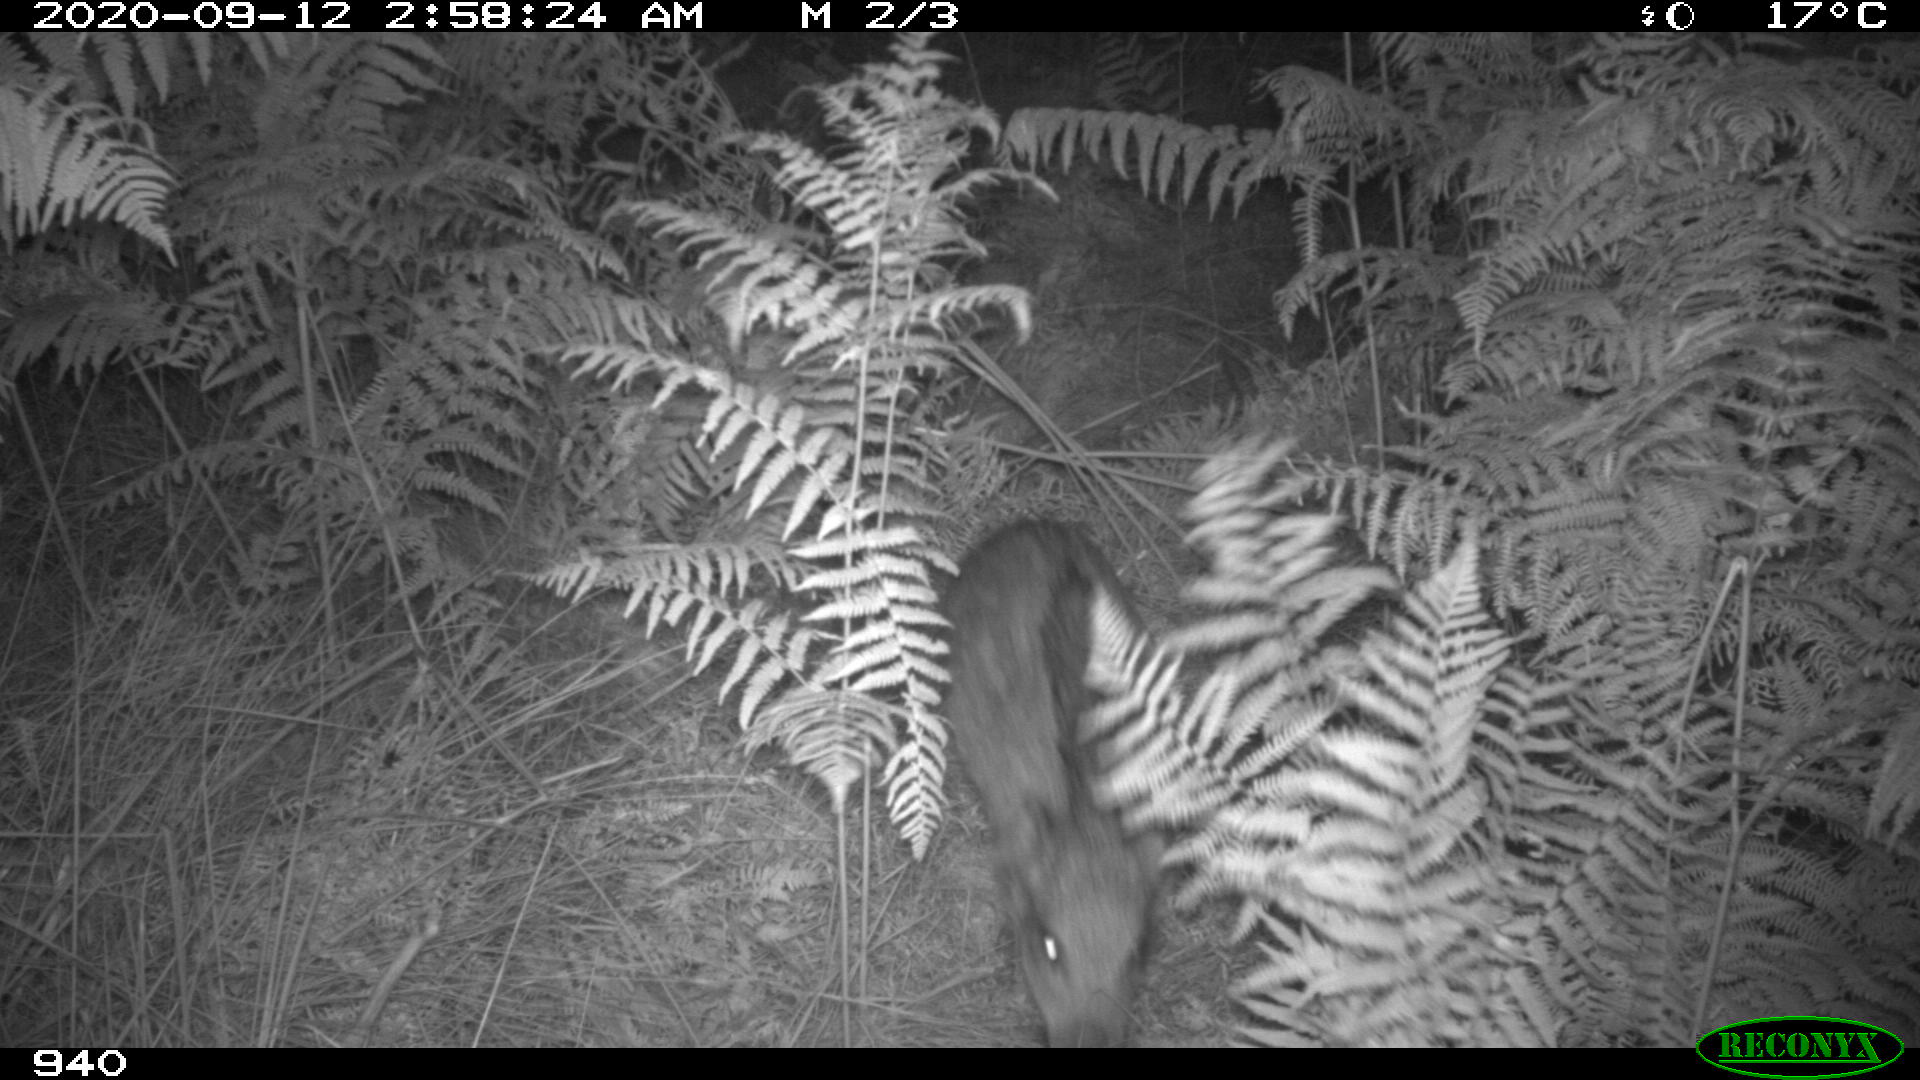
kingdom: Animalia
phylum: Chordata
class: Mammalia
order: Artiodactyla
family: Suidae
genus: Sus
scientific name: Sus scrofa
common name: Wild boar
